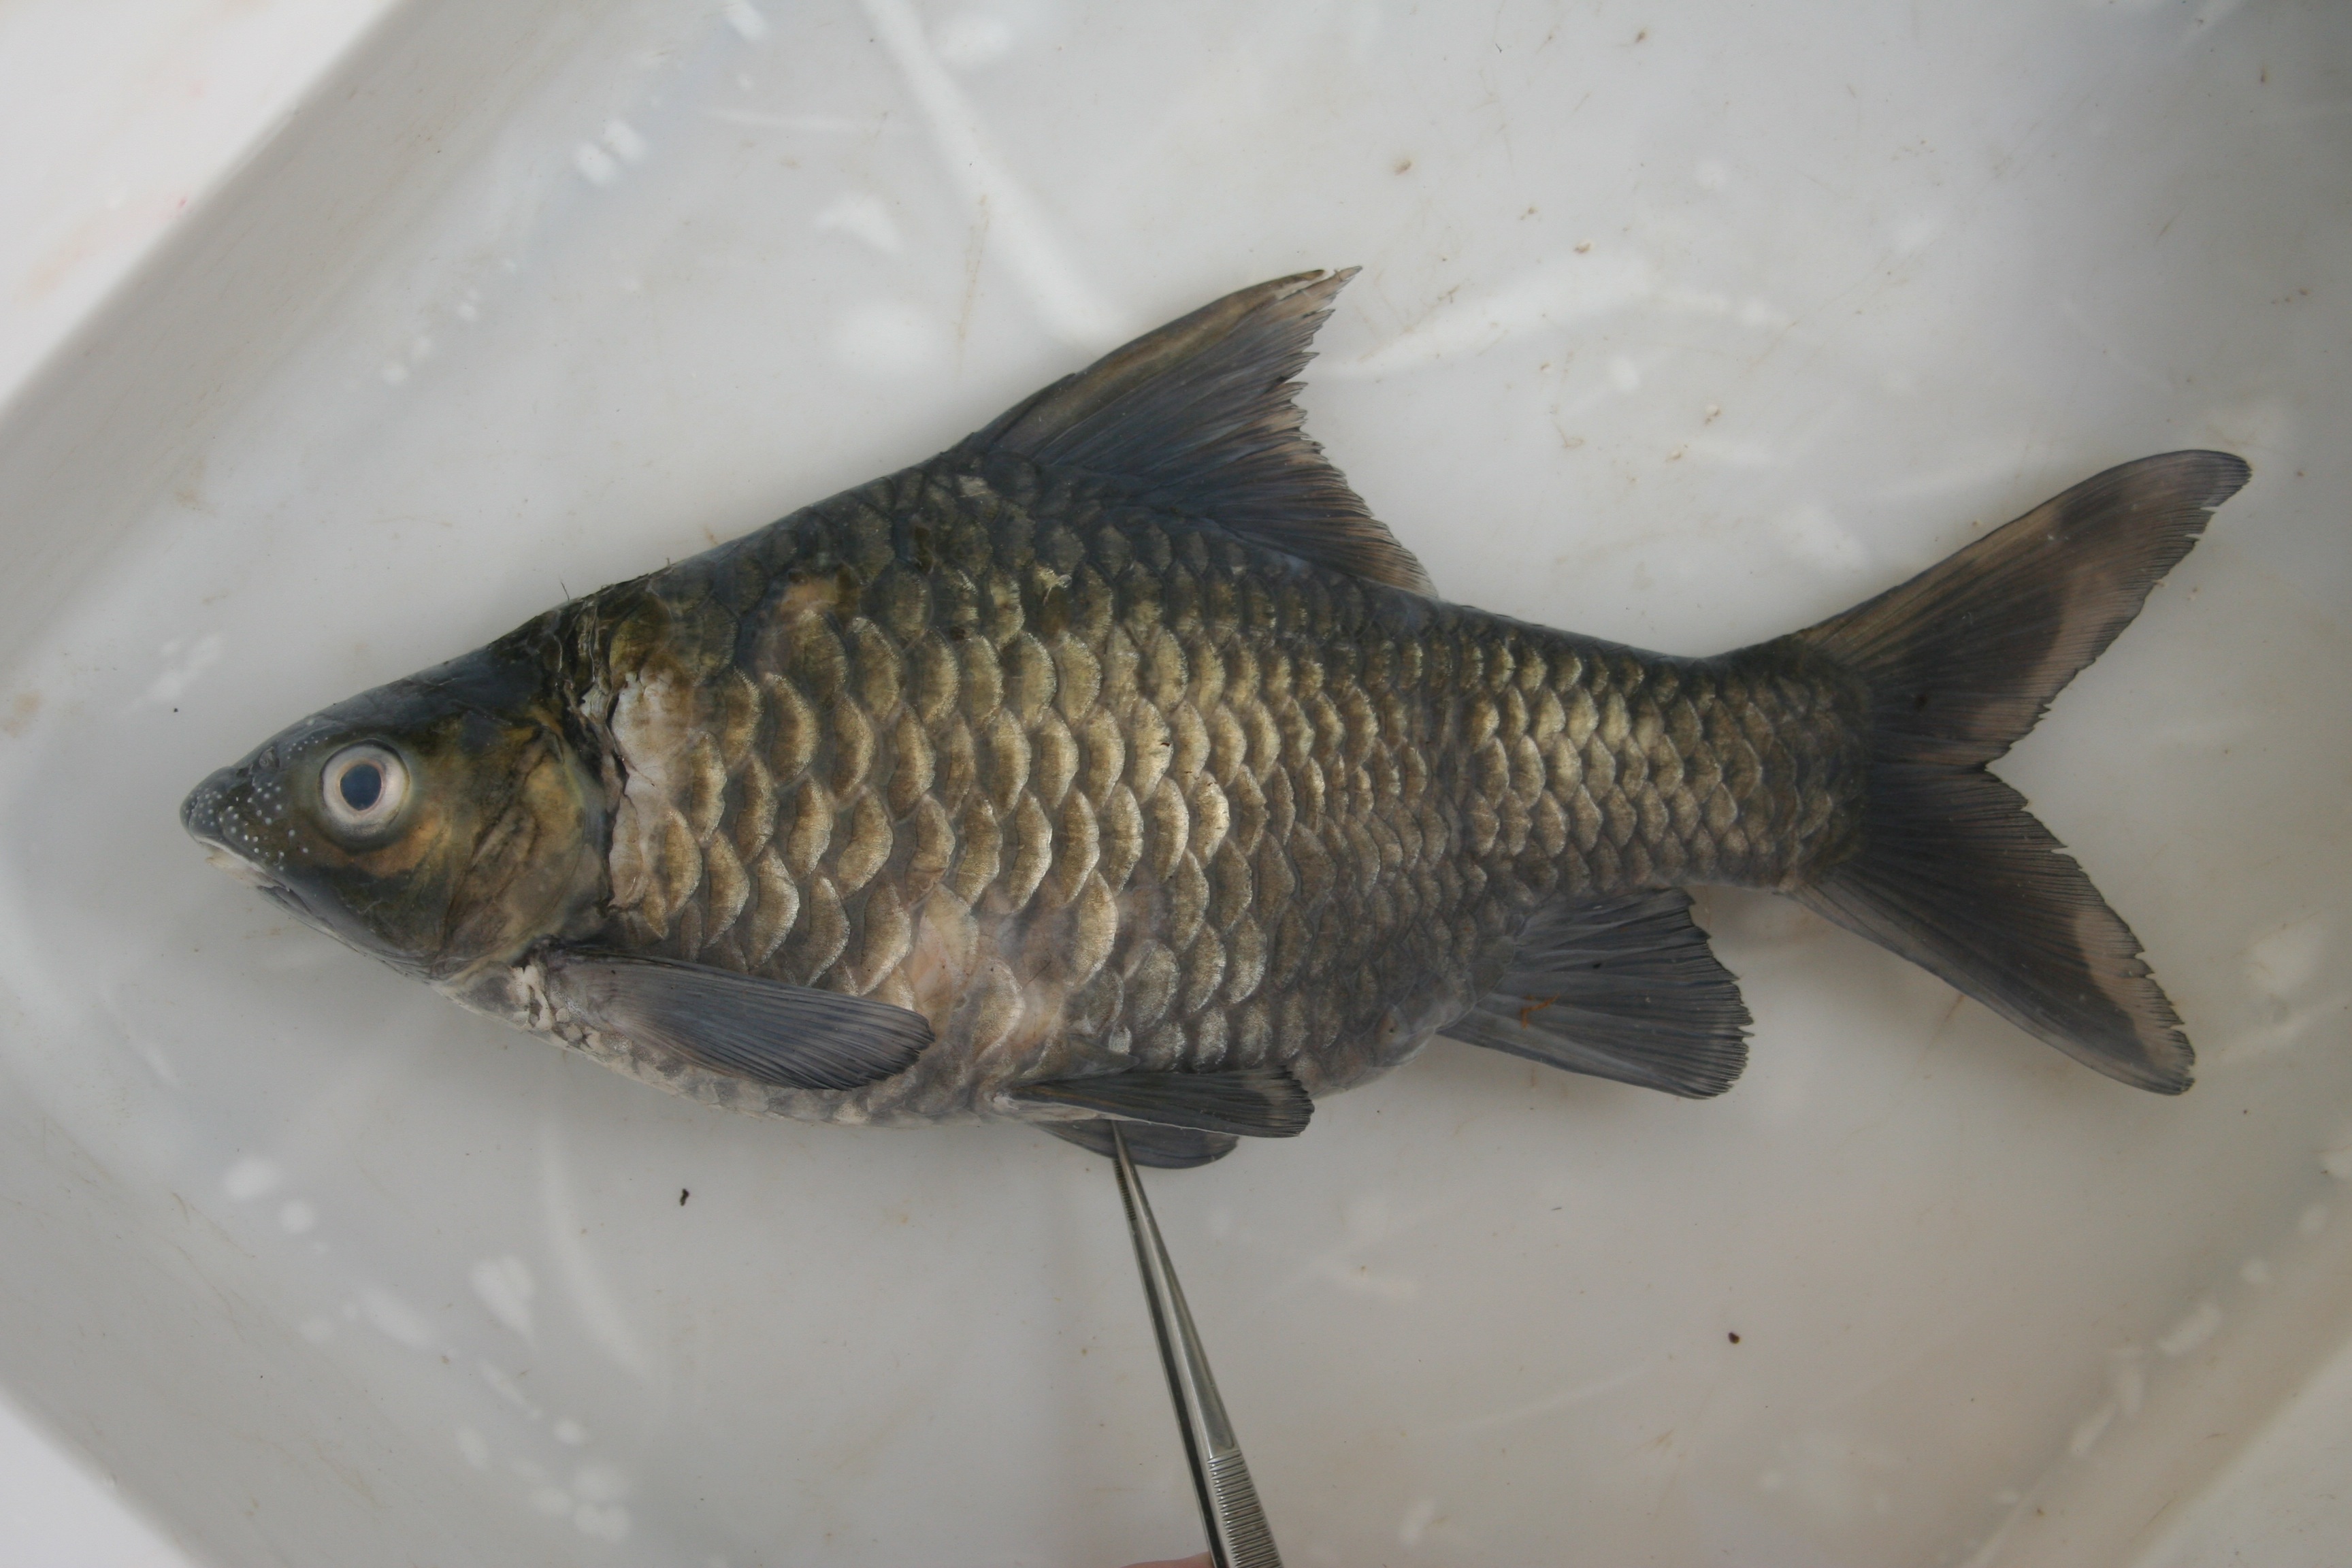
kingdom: Animalia
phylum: Chordata
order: Cypriniformes
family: Cyprinidae
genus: Labeobarbus
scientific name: Labeobarbus
